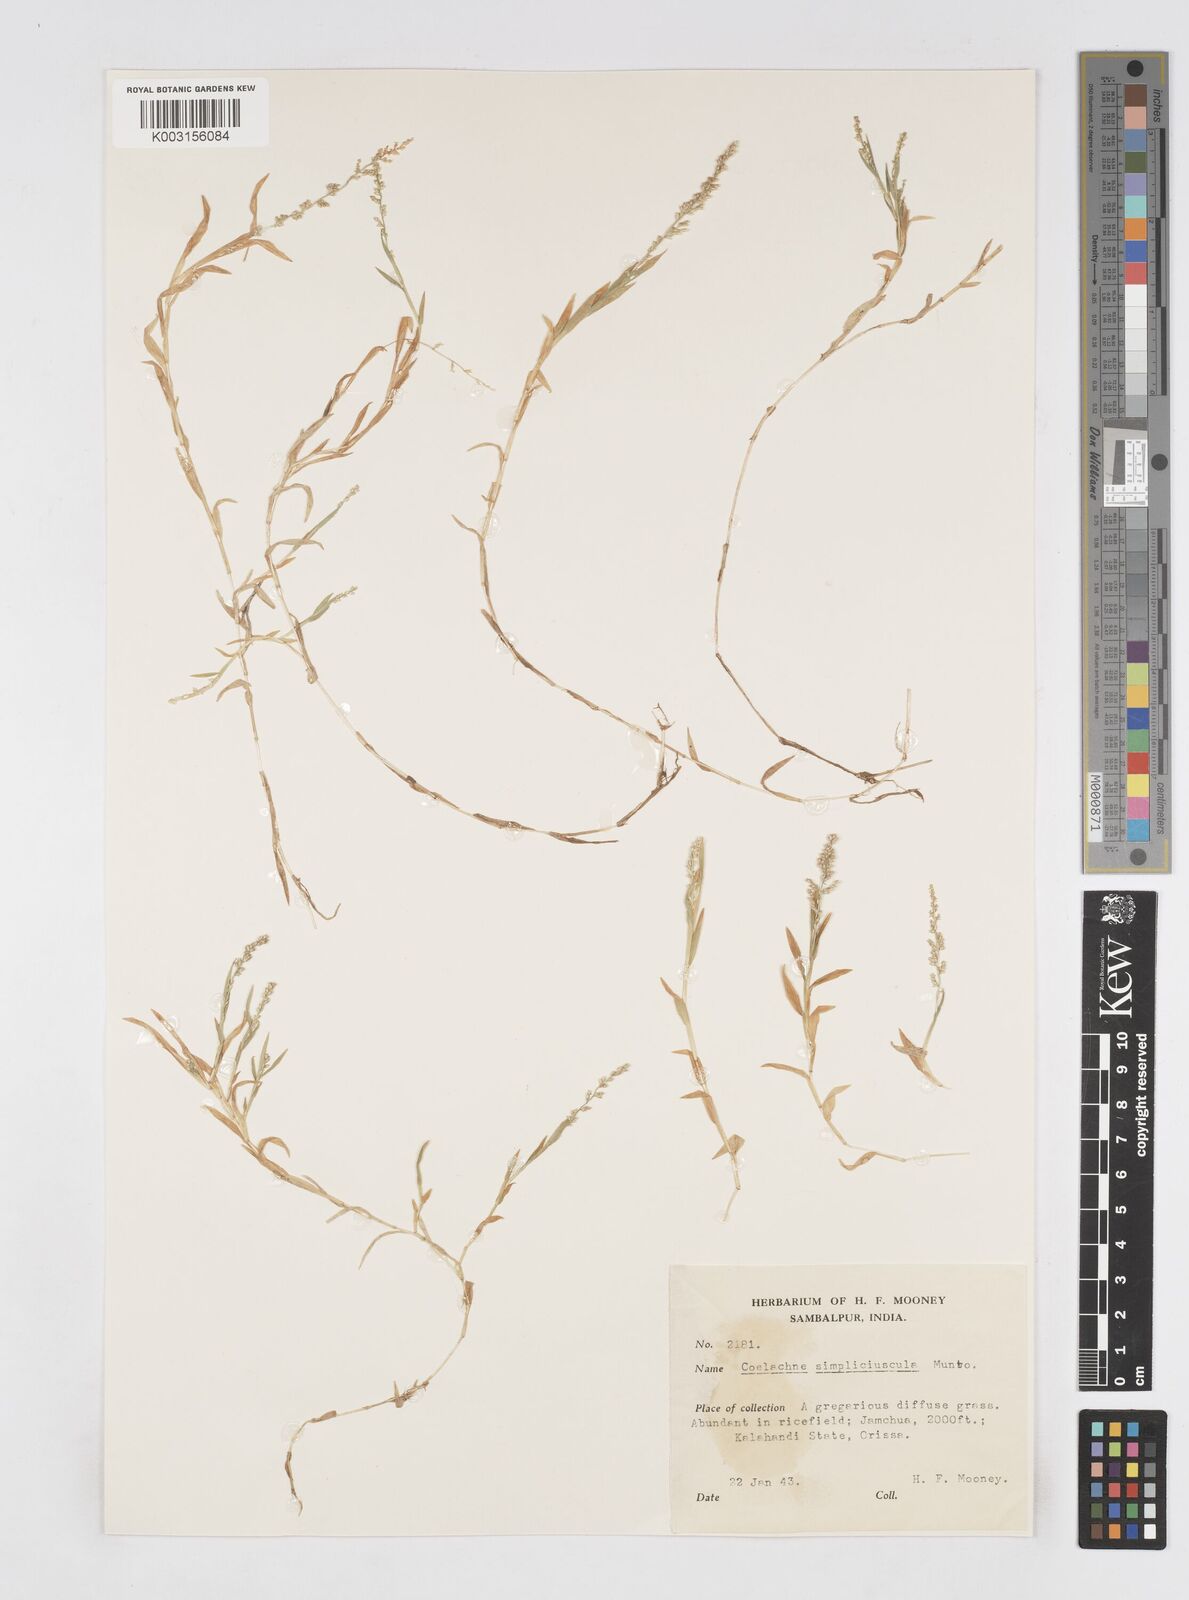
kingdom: Plantae
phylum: Tracheophyta
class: Liliopsida
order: Poales
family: Poaceae
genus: Coelachne
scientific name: Coelachne simpliciuscula
